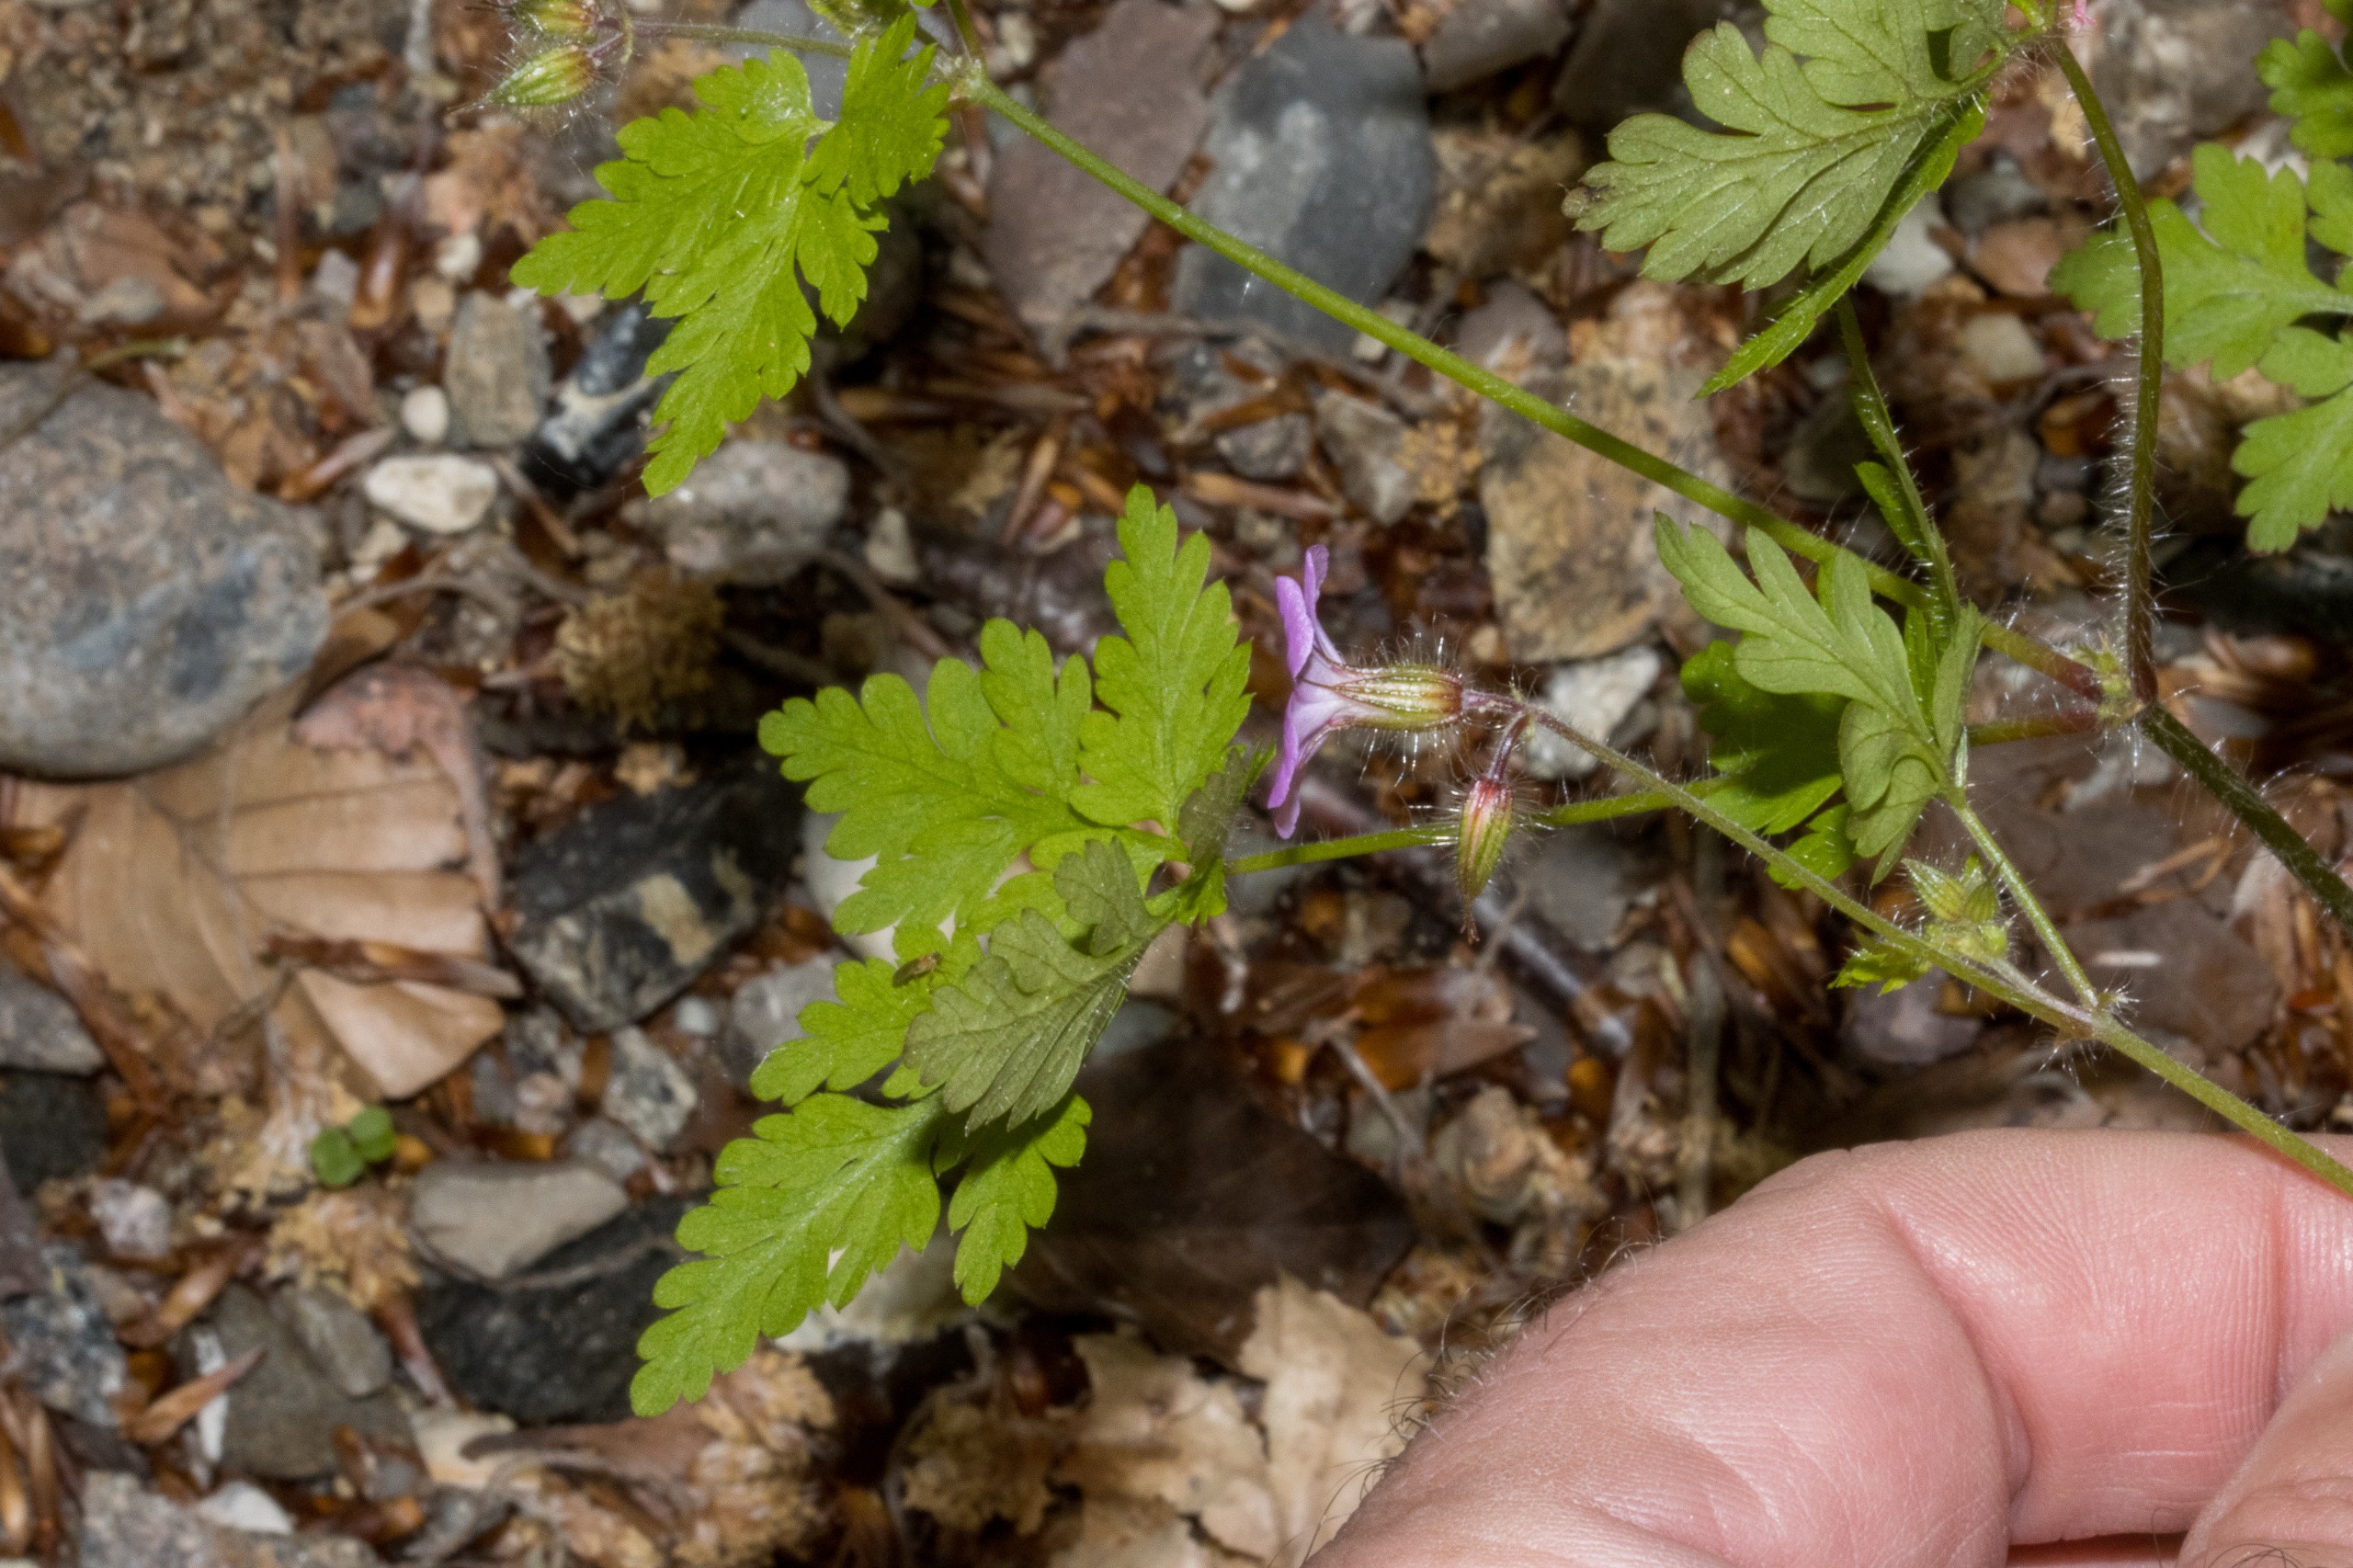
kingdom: Plantae
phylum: Tracheophyta
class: Magnoliopsida
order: Geraniales
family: Geraniaceae
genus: Geranium
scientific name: Geranium robertianum
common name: Stinkende storkenæb
